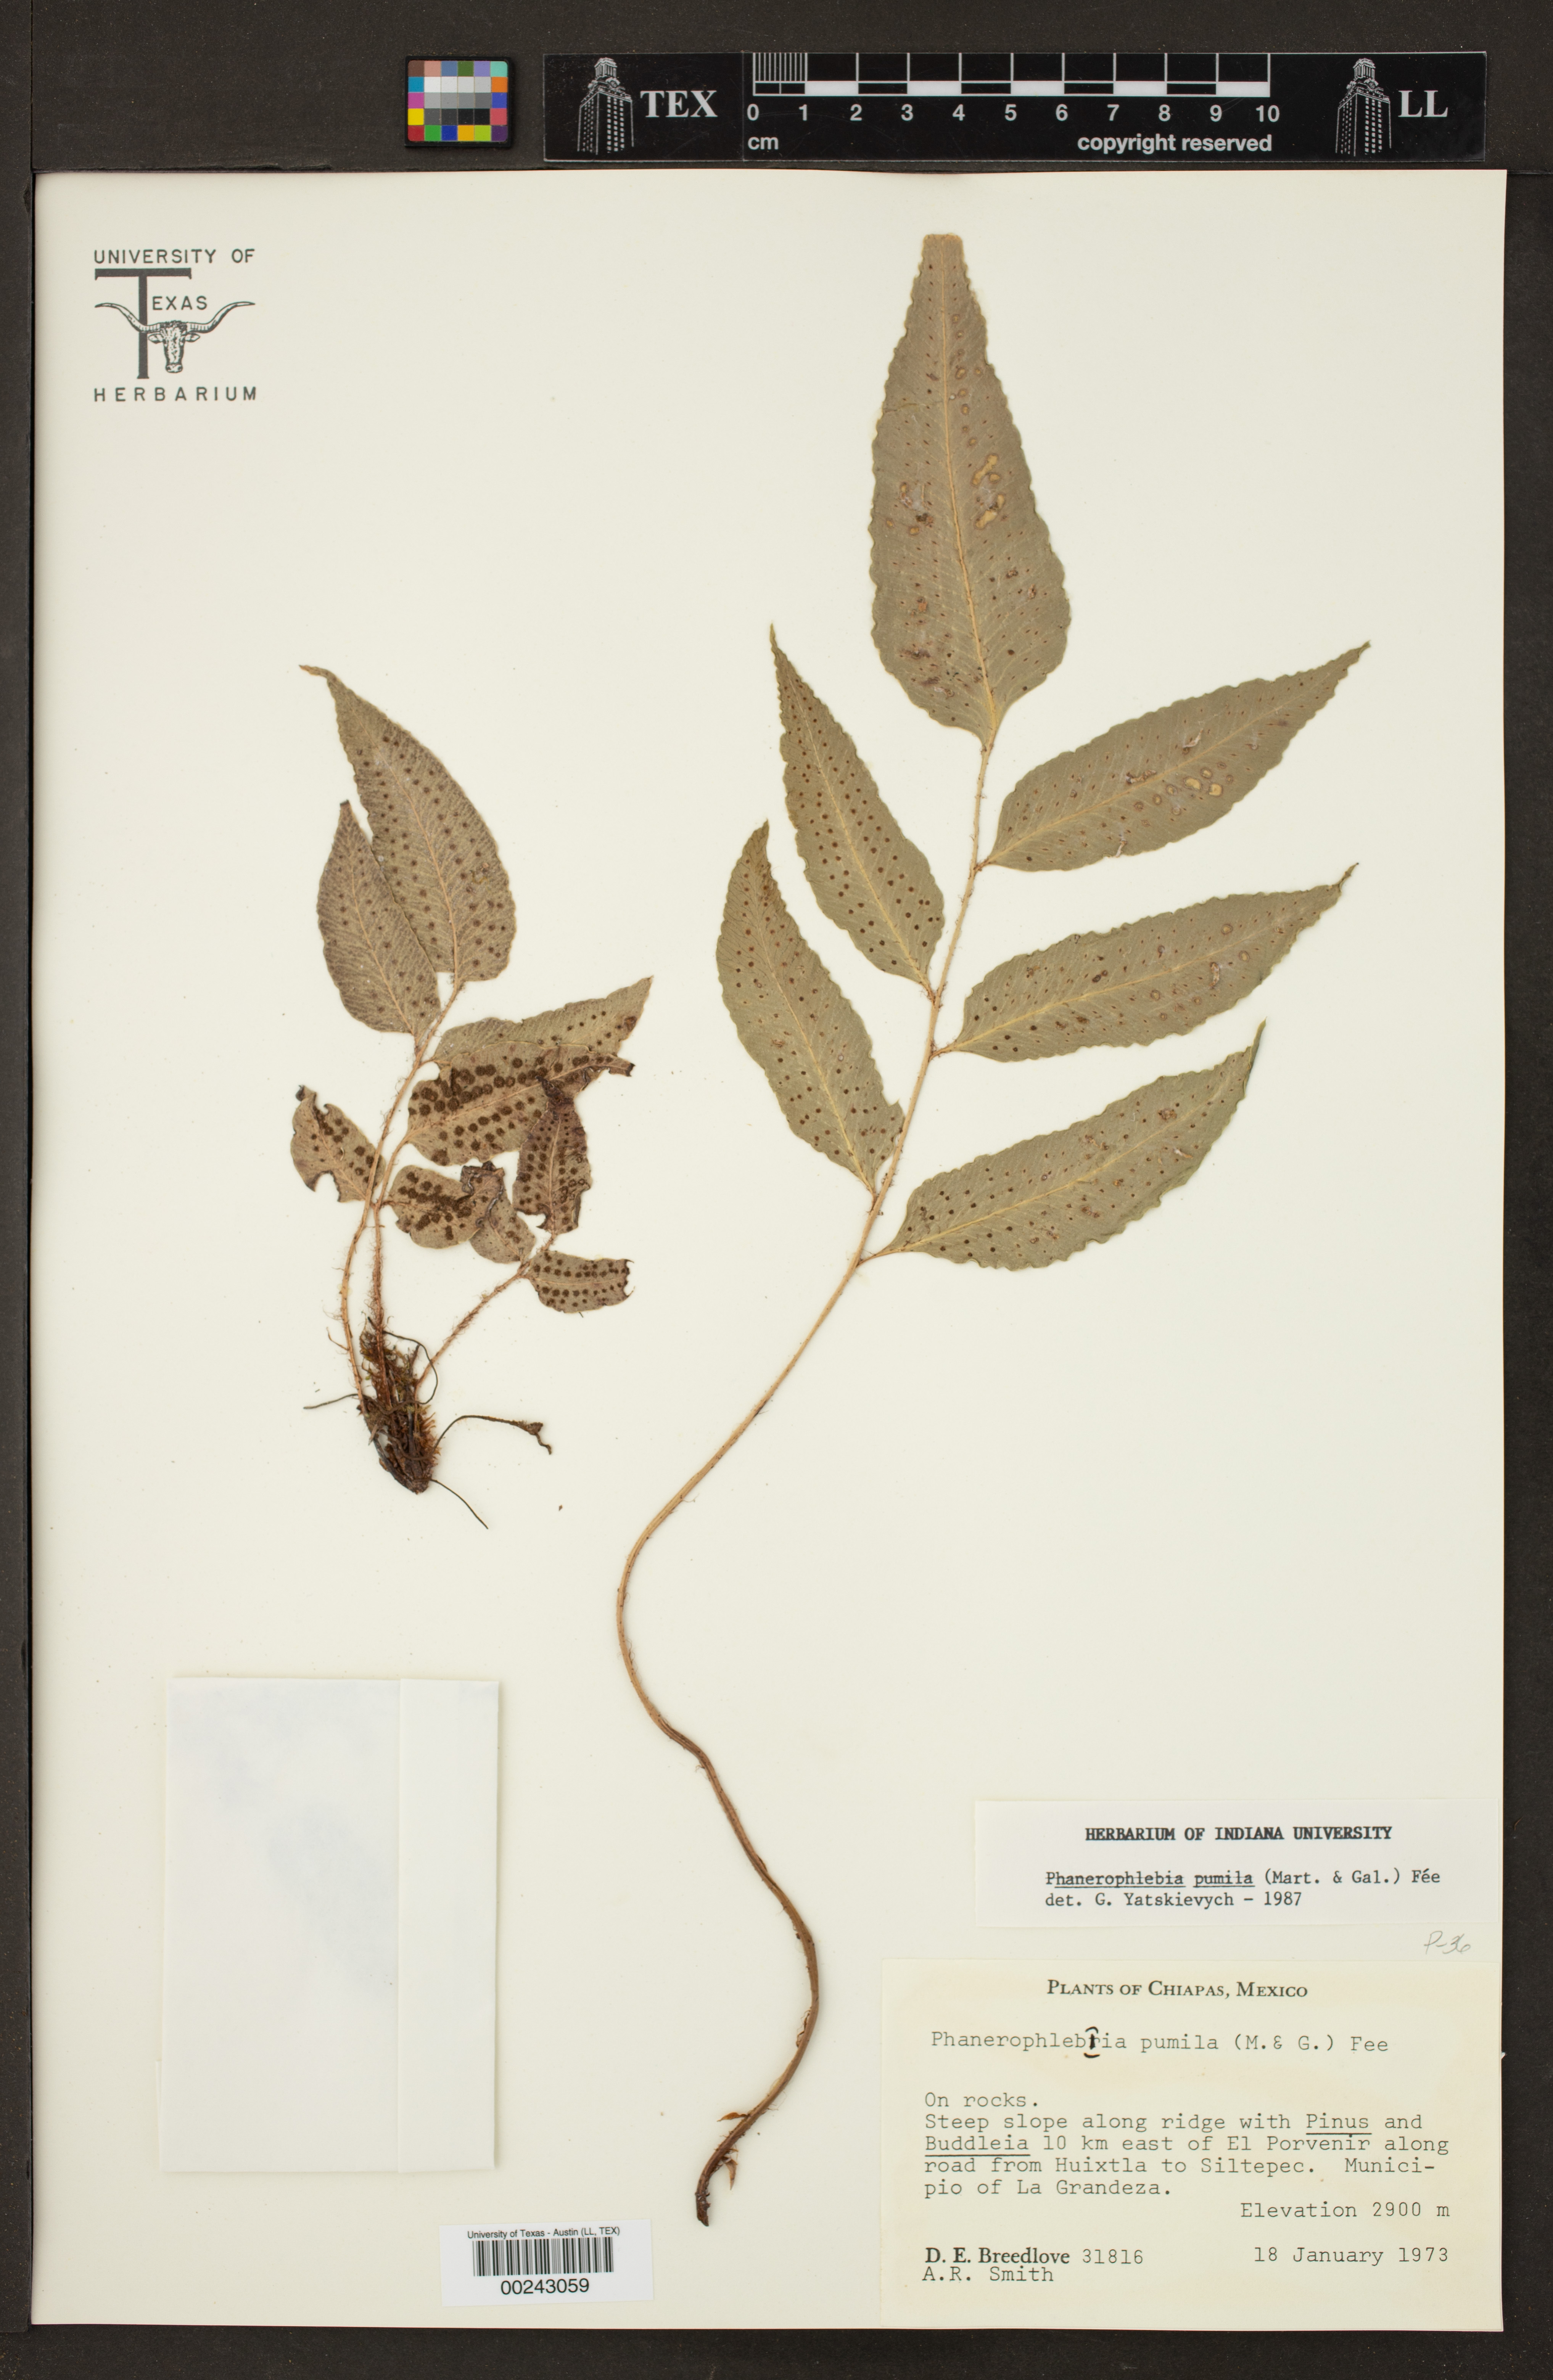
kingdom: Plantae
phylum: Tracheophyta
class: Polypodiopsida
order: Polypodiales
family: Dryopteridaceae
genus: Phanerophlebia
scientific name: Phanerophlebia remotispora
